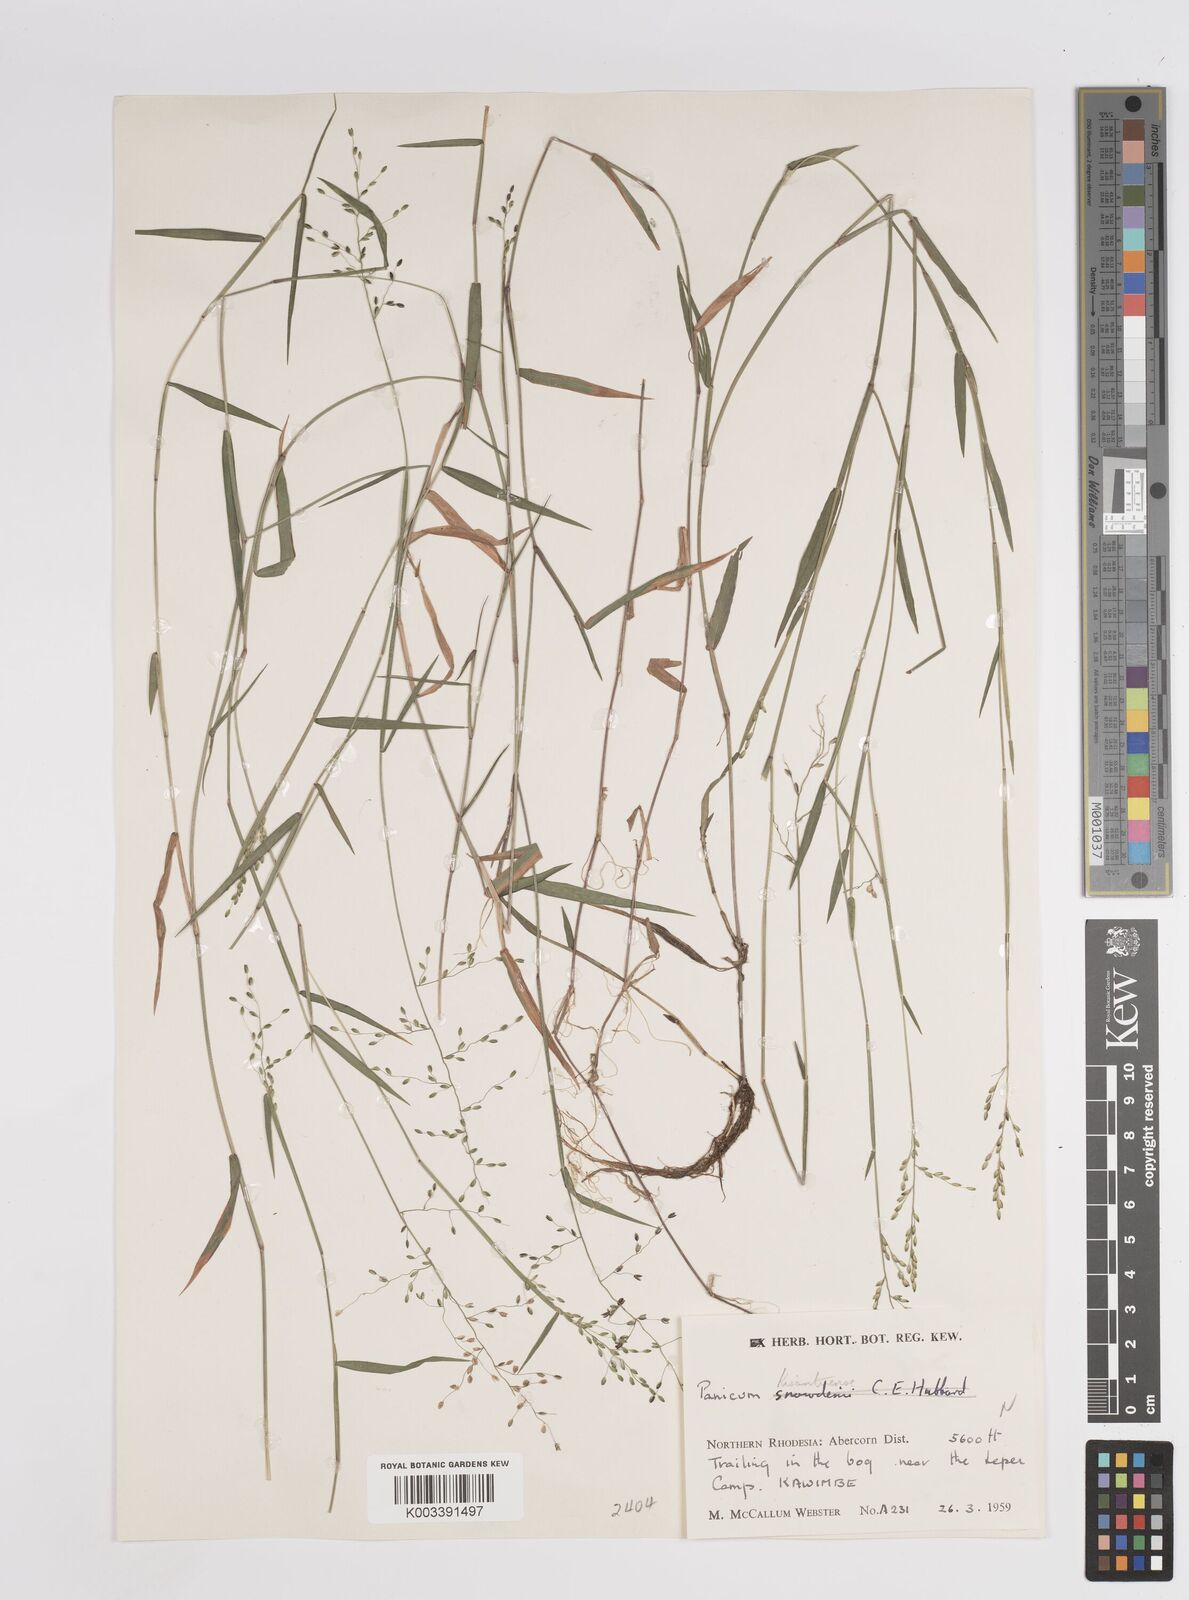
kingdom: Plantae
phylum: Tracheophyta
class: Liliopsida
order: Poales
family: Poaceae
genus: Adenochloa
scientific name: Adenochloa hymeniochila
